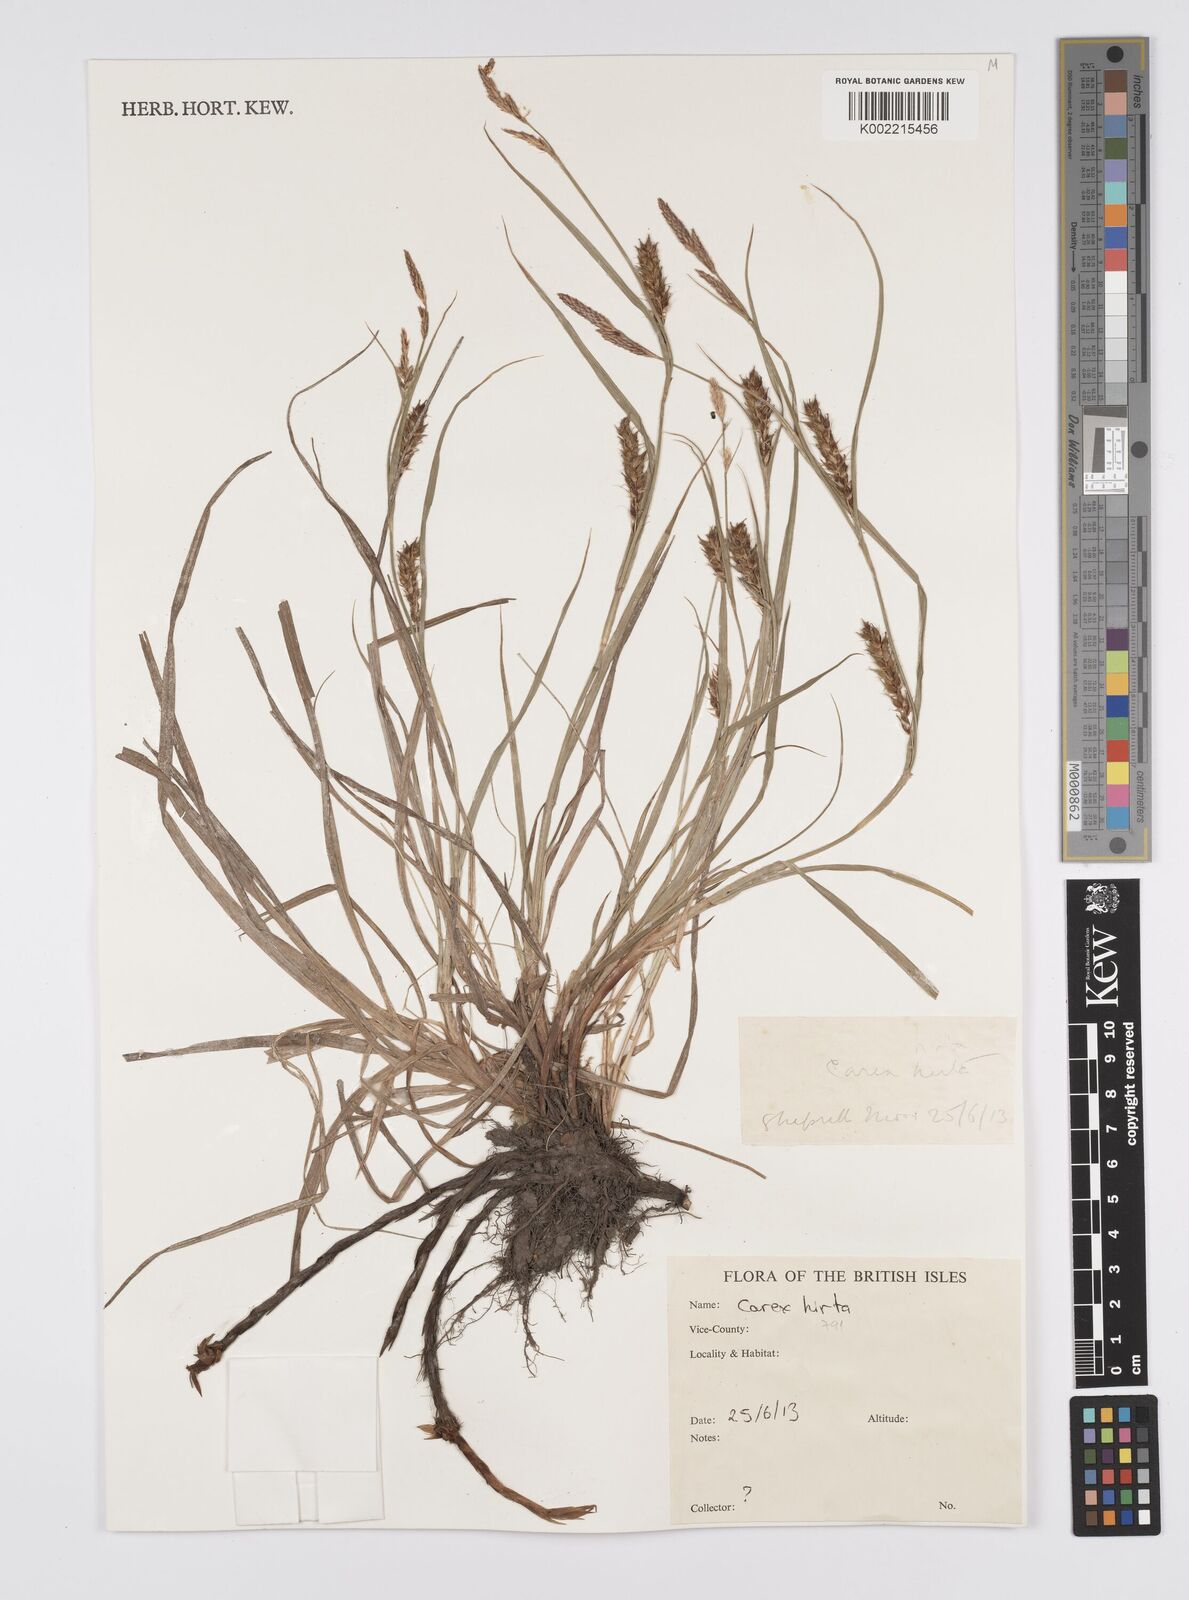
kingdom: Plantae
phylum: Tracheophyta
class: Liliopsida
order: Poales
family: Cyperaceae
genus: Carex
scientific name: Carex hirta
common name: Hairy sedge
